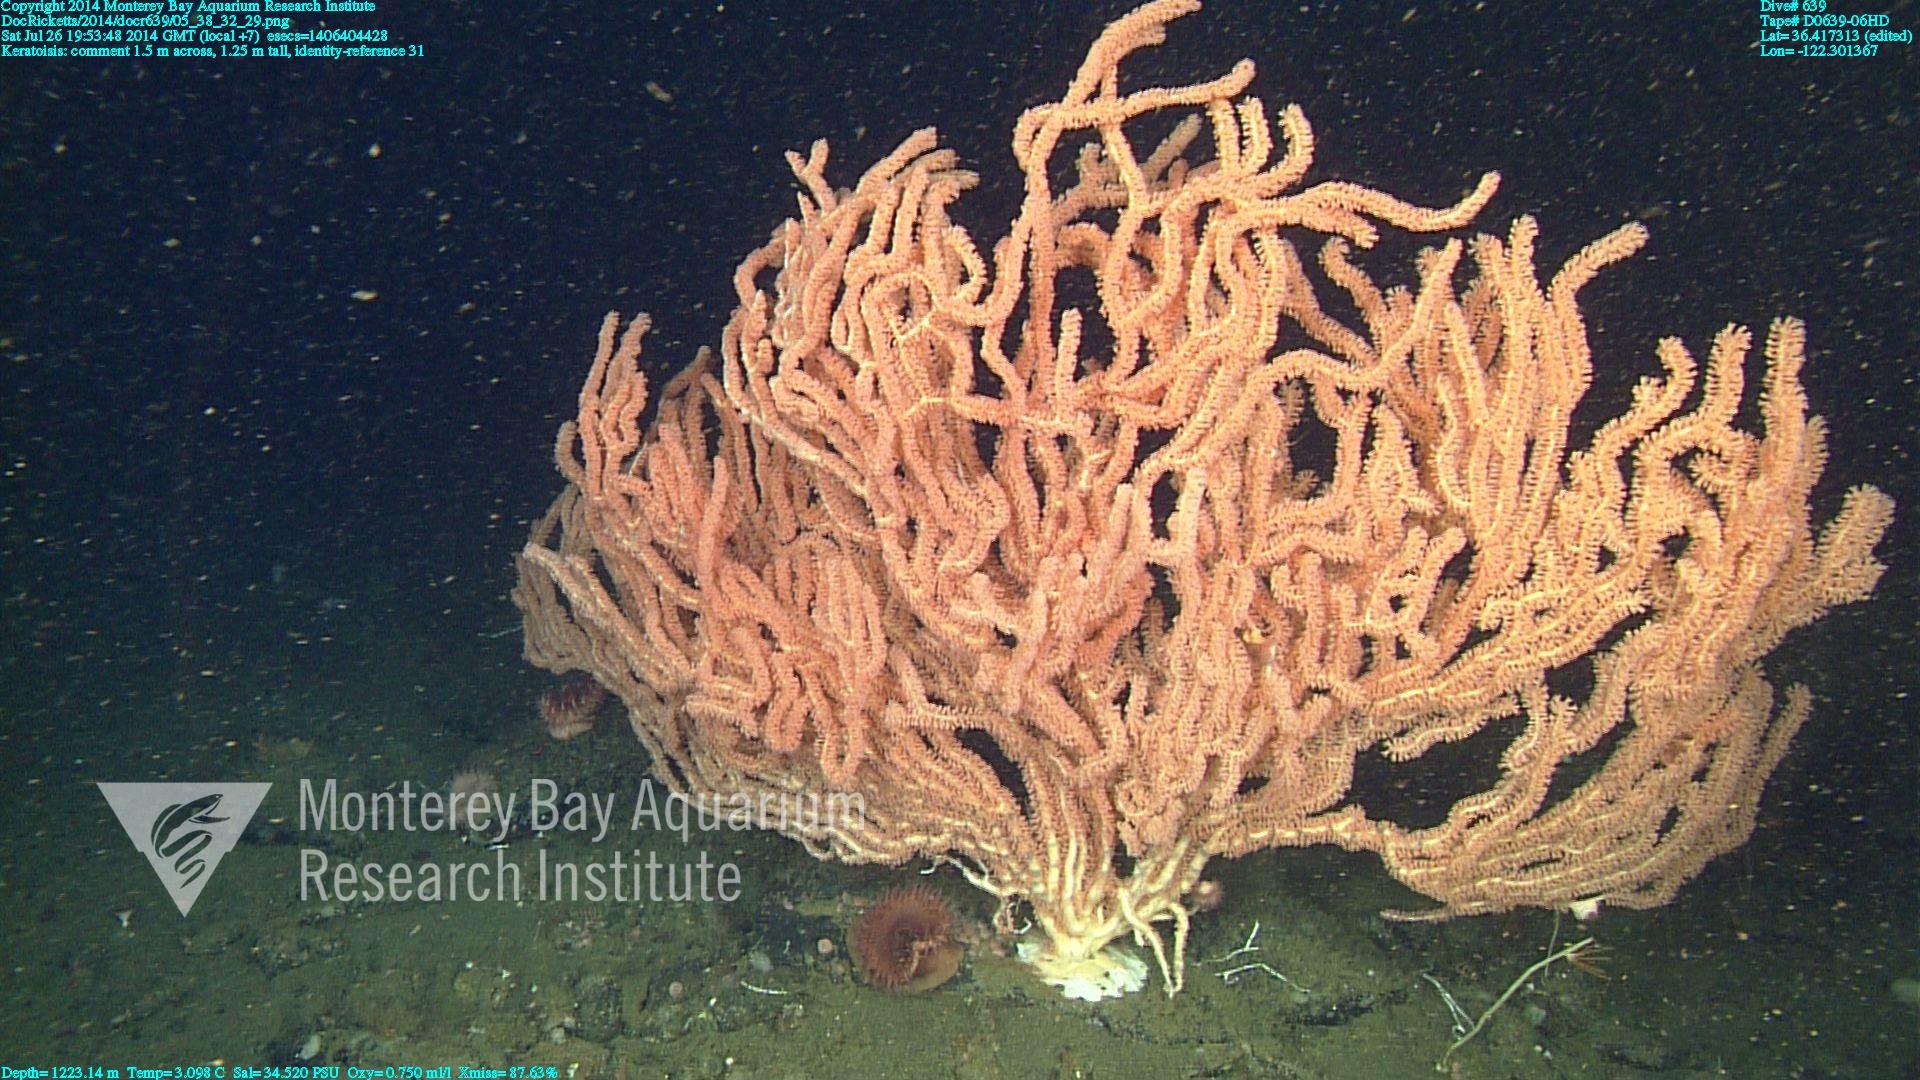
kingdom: Animalia
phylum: Cnidaria
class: Anthozoa
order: Scleralcyonacea
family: Keratoisididae
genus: Keratoisis
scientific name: Keratoisis
